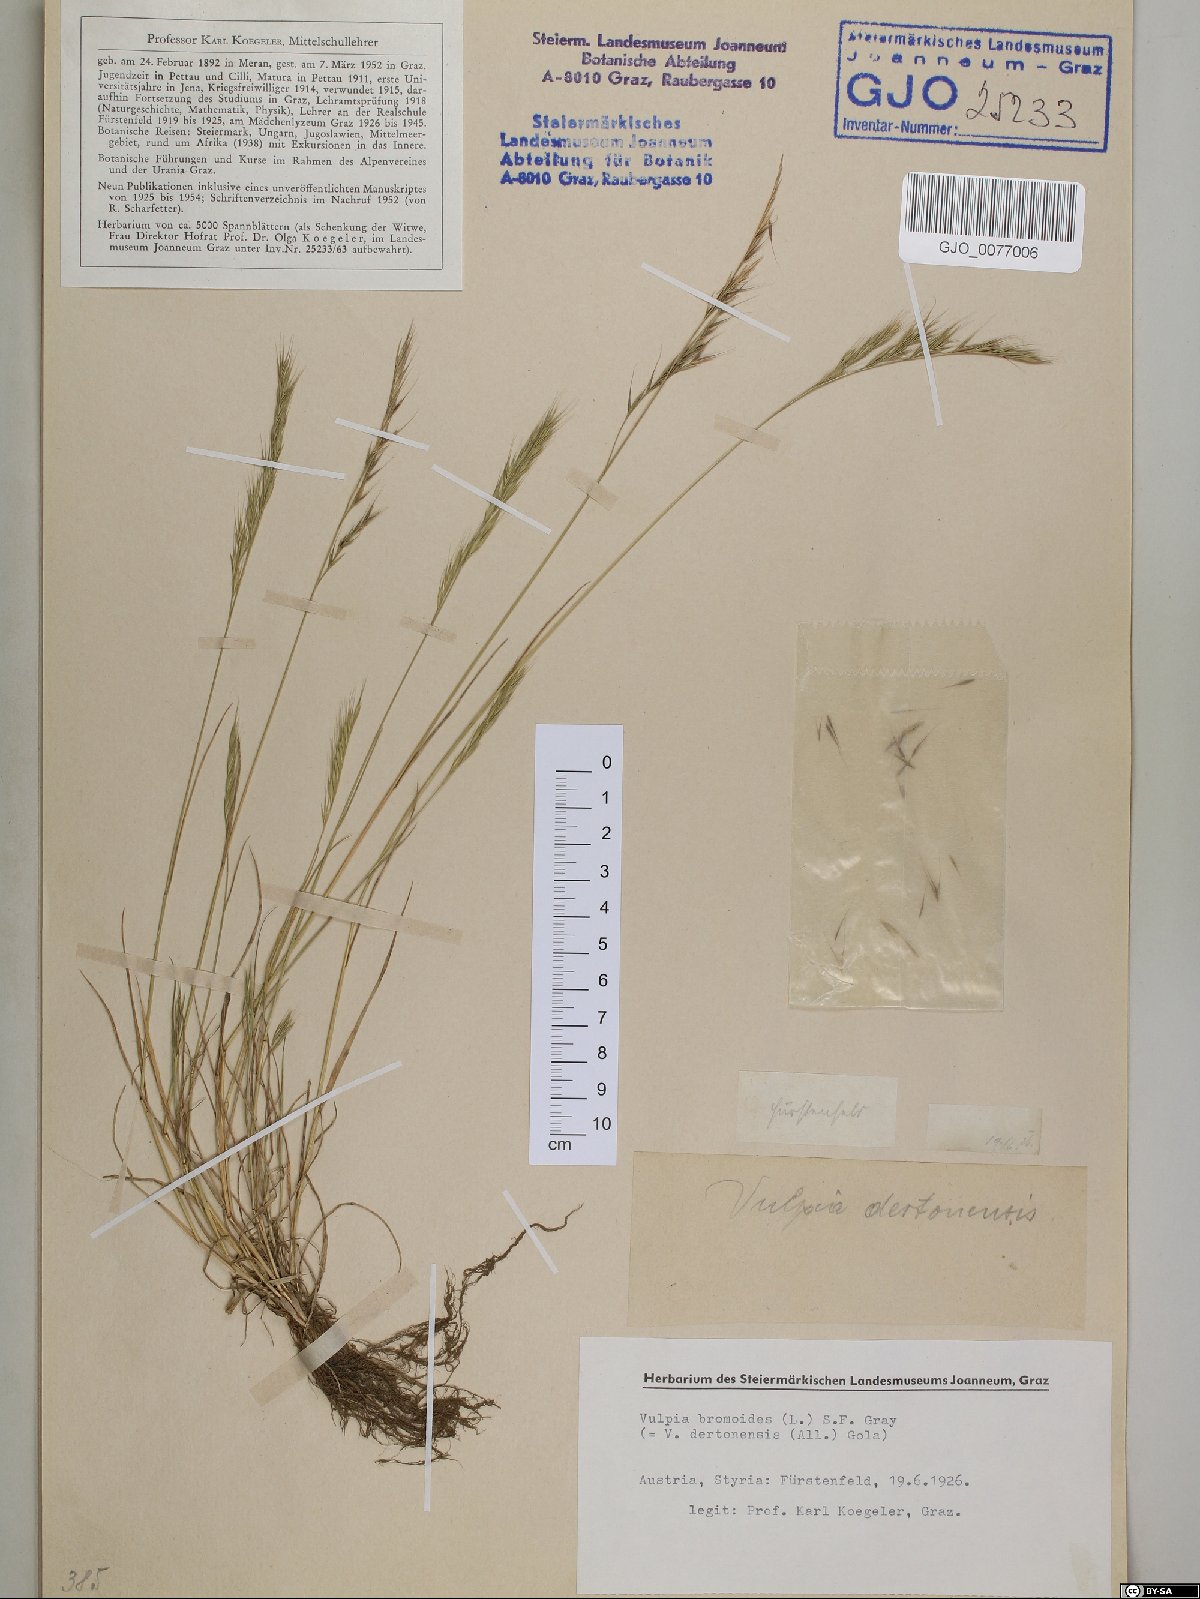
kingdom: Plantae
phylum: Tracheophyta
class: Liliopsida
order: Poales
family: Poaceae
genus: Festuca
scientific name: Festuca bromoides
